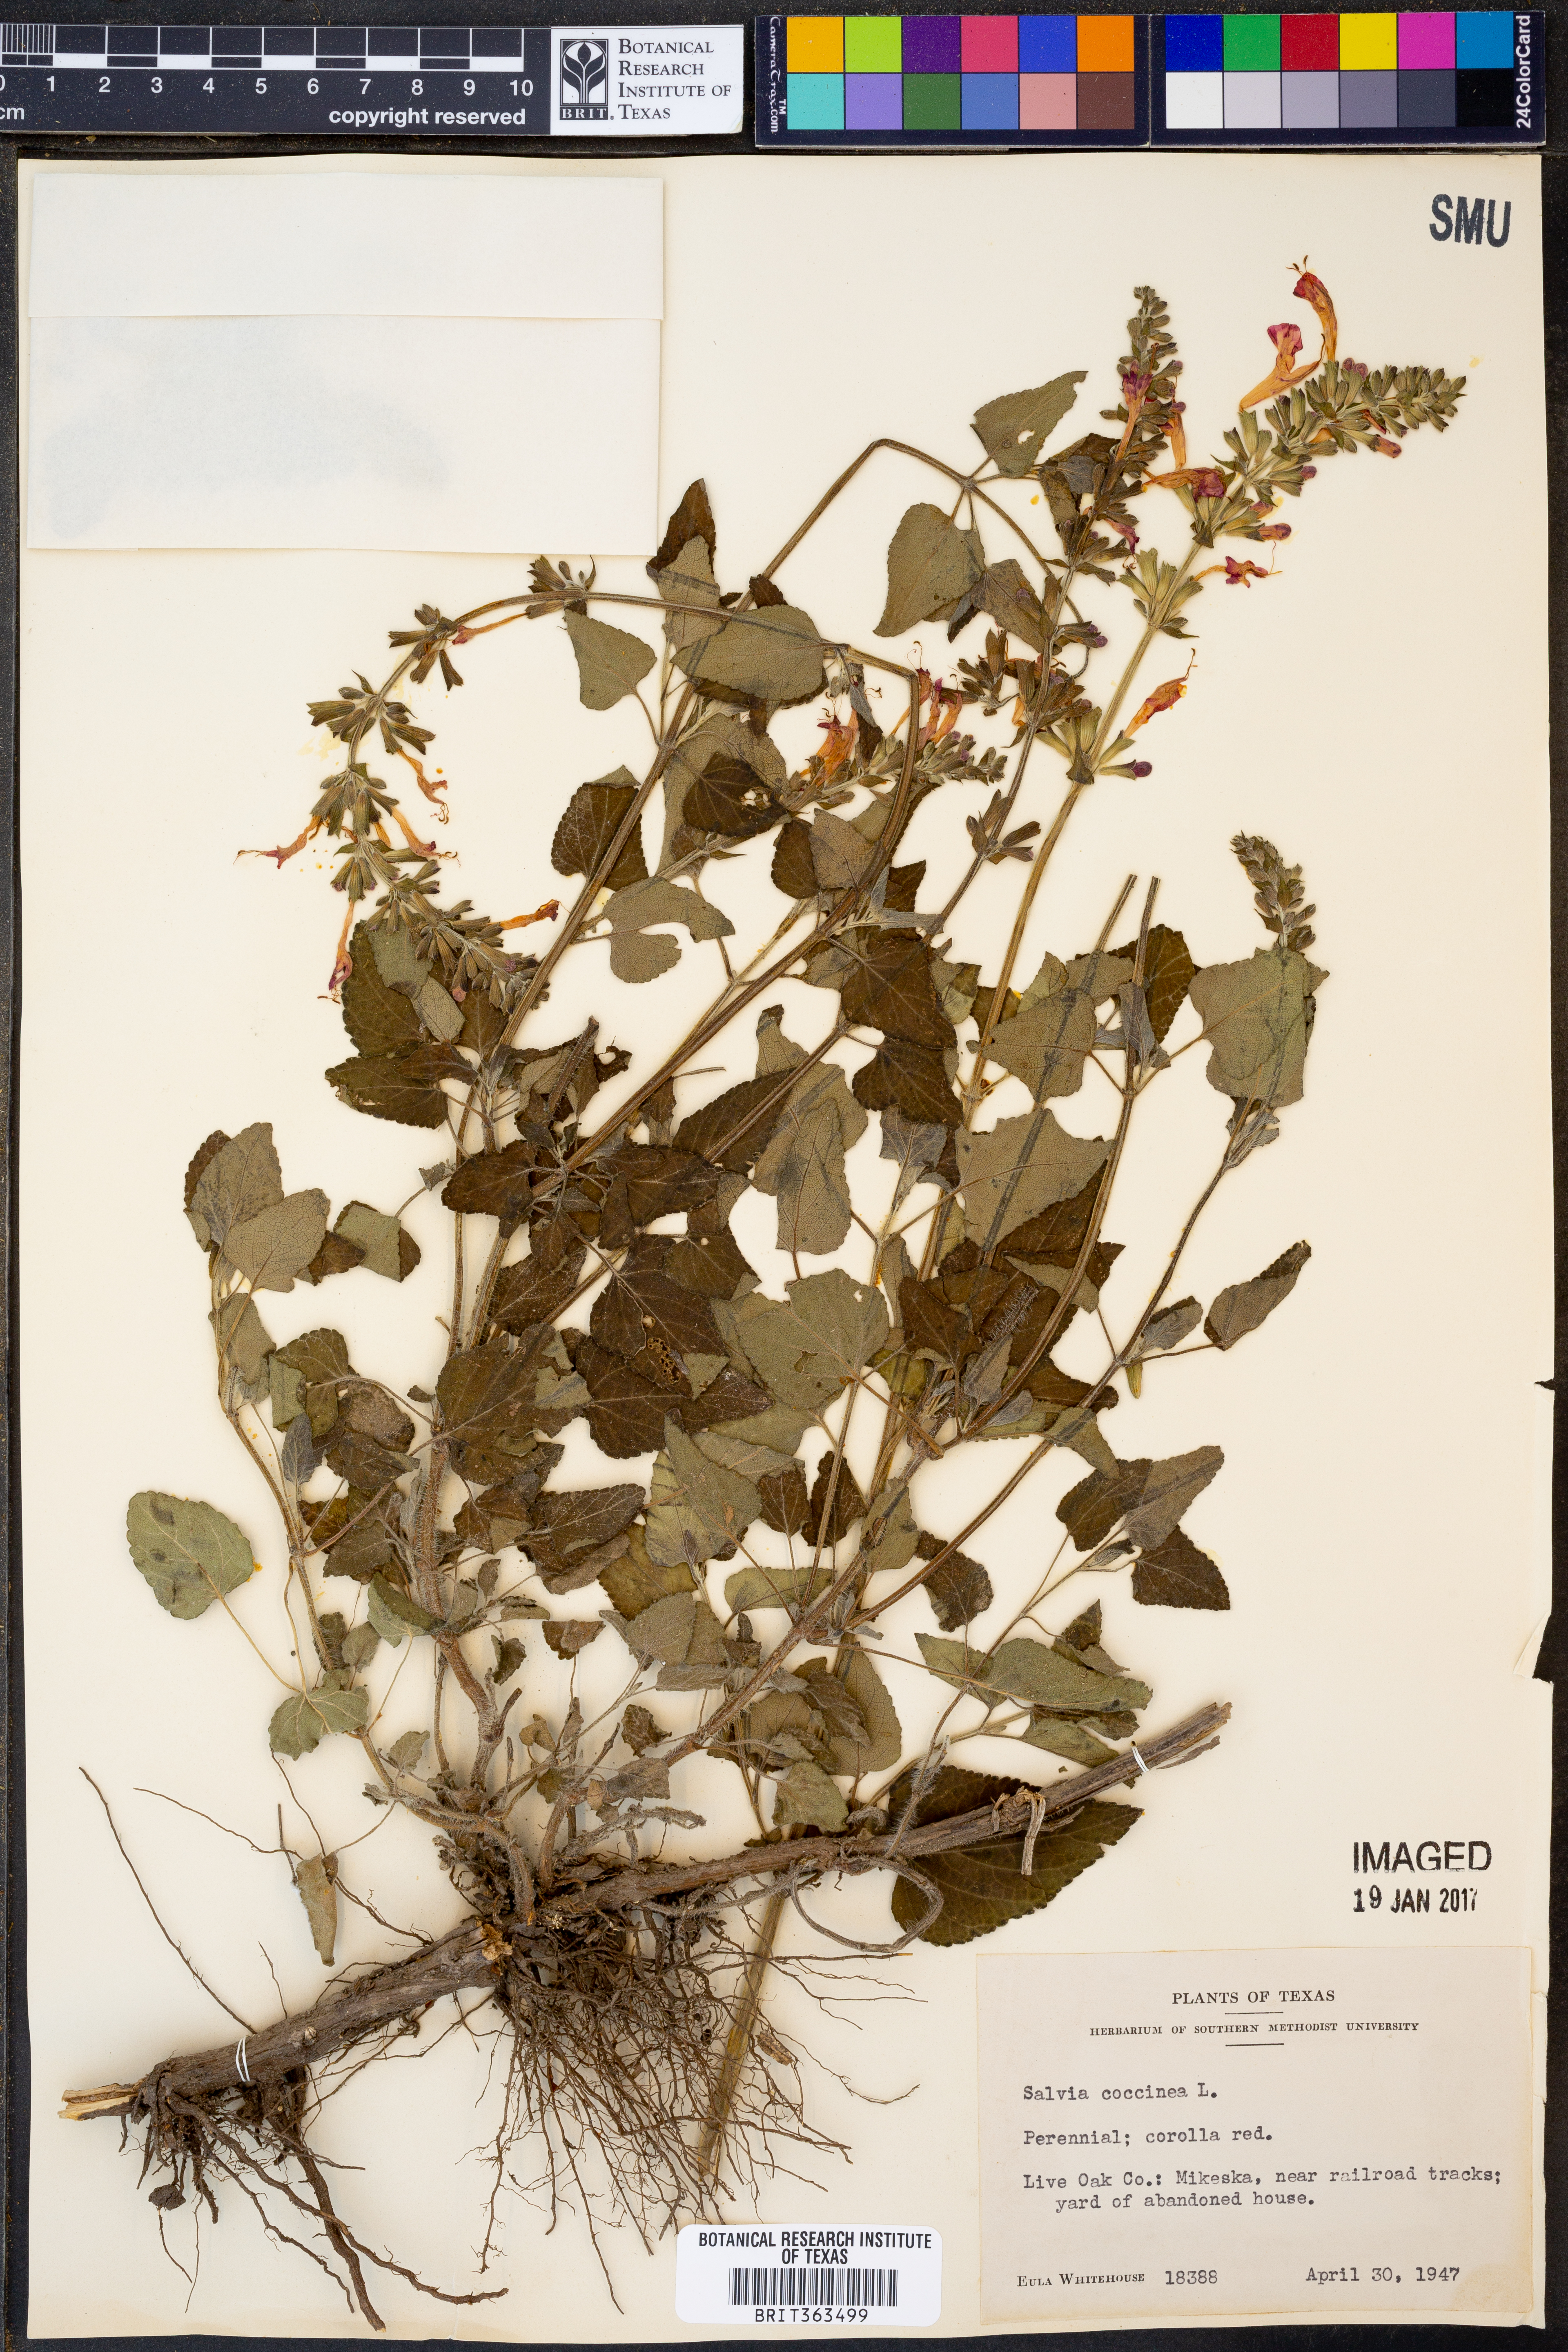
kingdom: Plantae
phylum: Tracheophyta
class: Magnoliopsida
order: Lamiales
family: Lamiaceae
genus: Salvia
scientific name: Salvia coccinea
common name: Blood sage
